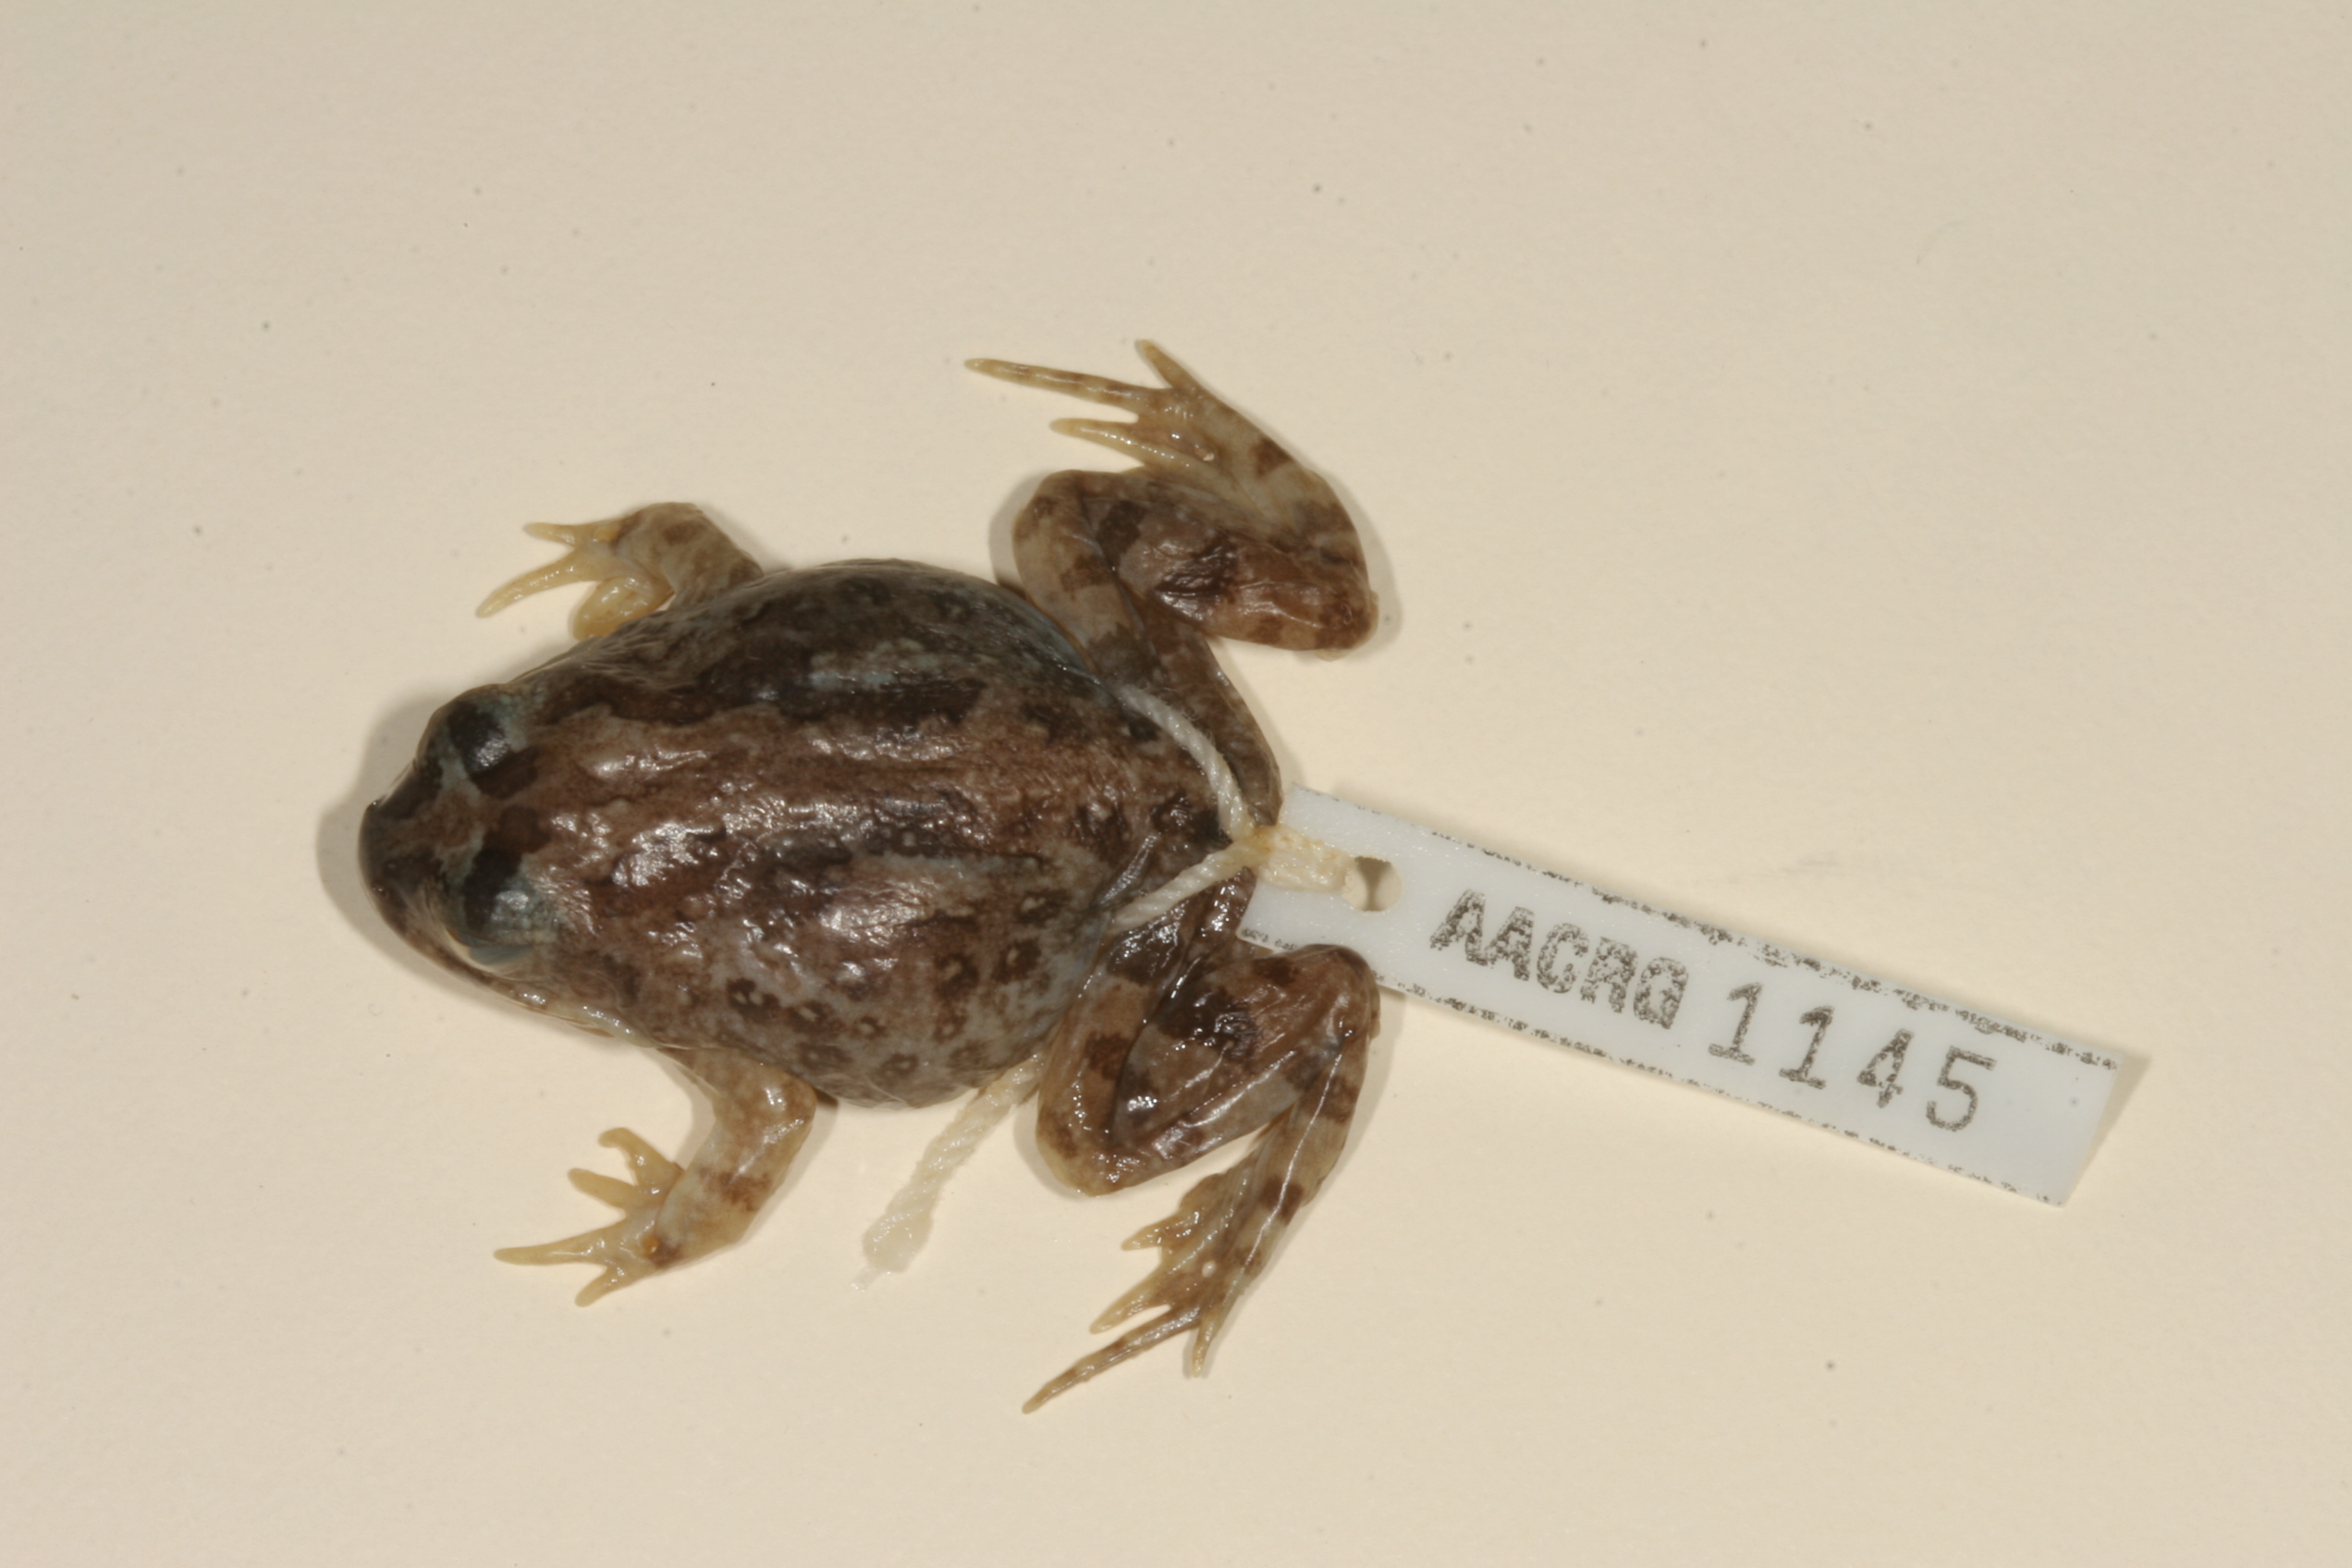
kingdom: Animalia
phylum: Chordata
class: Amphibia
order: Anura
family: Pyxicephalidae
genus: Tomopterna
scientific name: Tomopterna tandyi
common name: Tandy's sand frog
